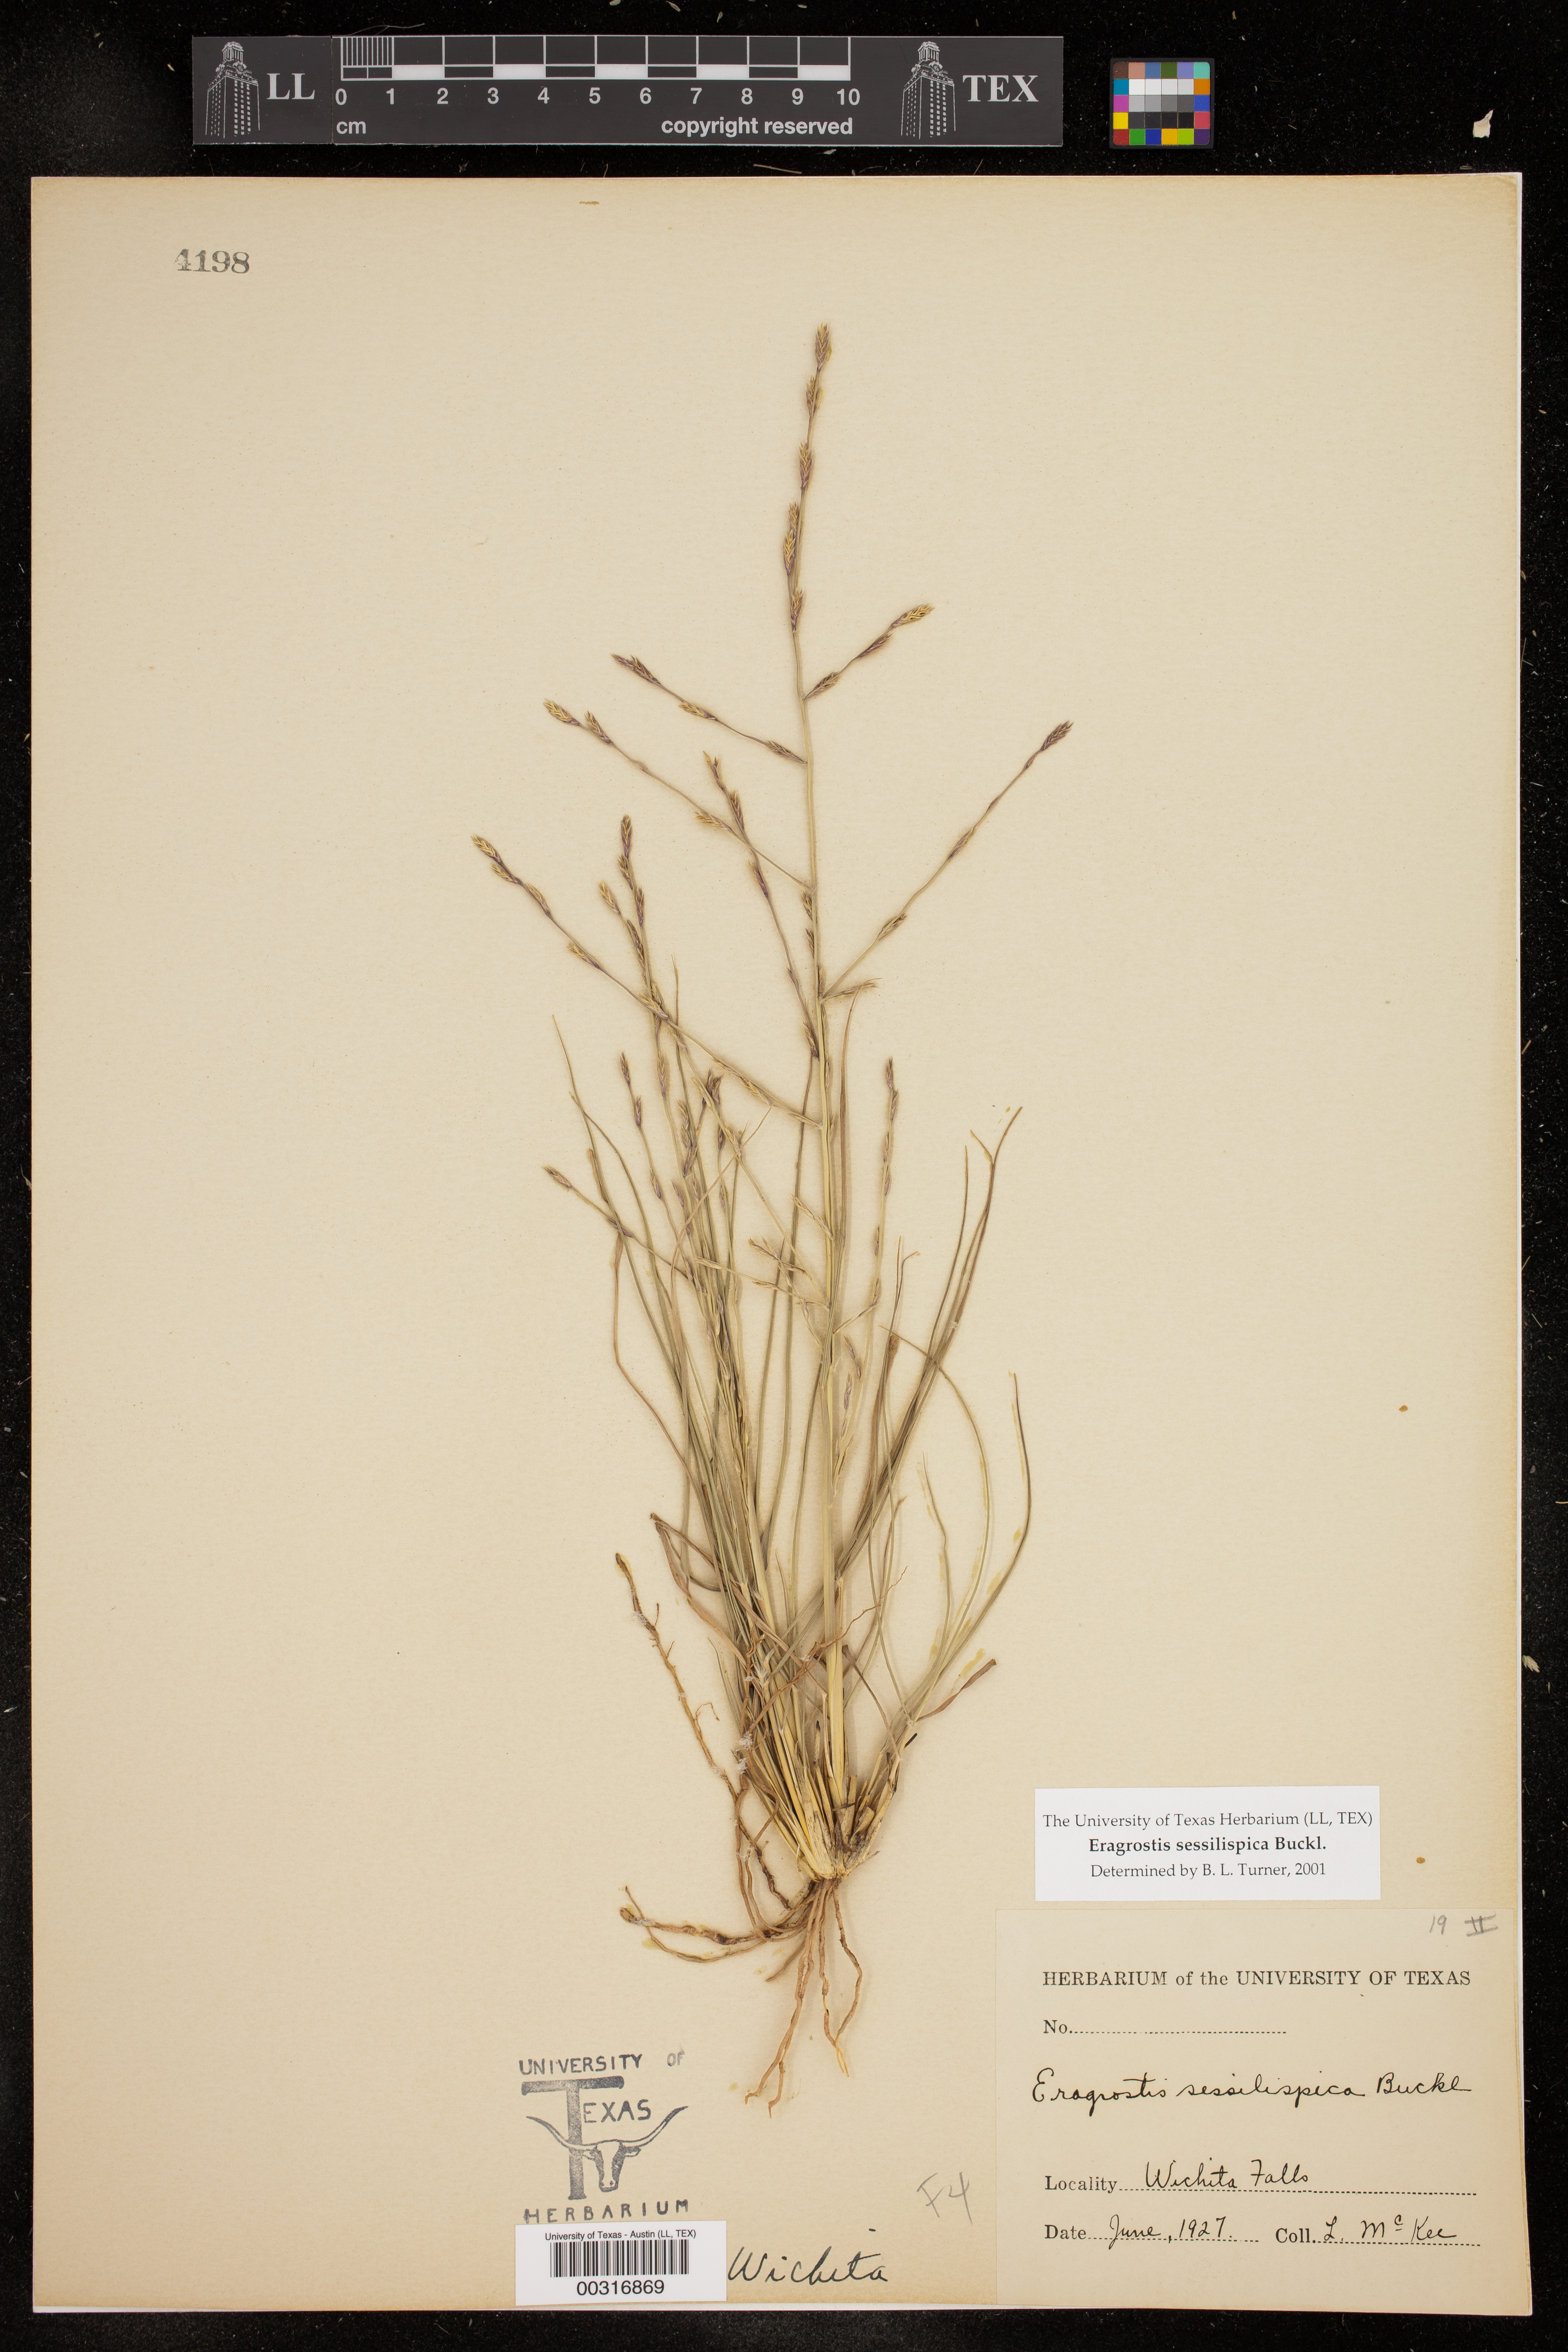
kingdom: Plantae
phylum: Tracheophyta
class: Liliopsida
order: Poales
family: Poaceae
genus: Eragrostis
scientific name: Eragrostis sessilispica
